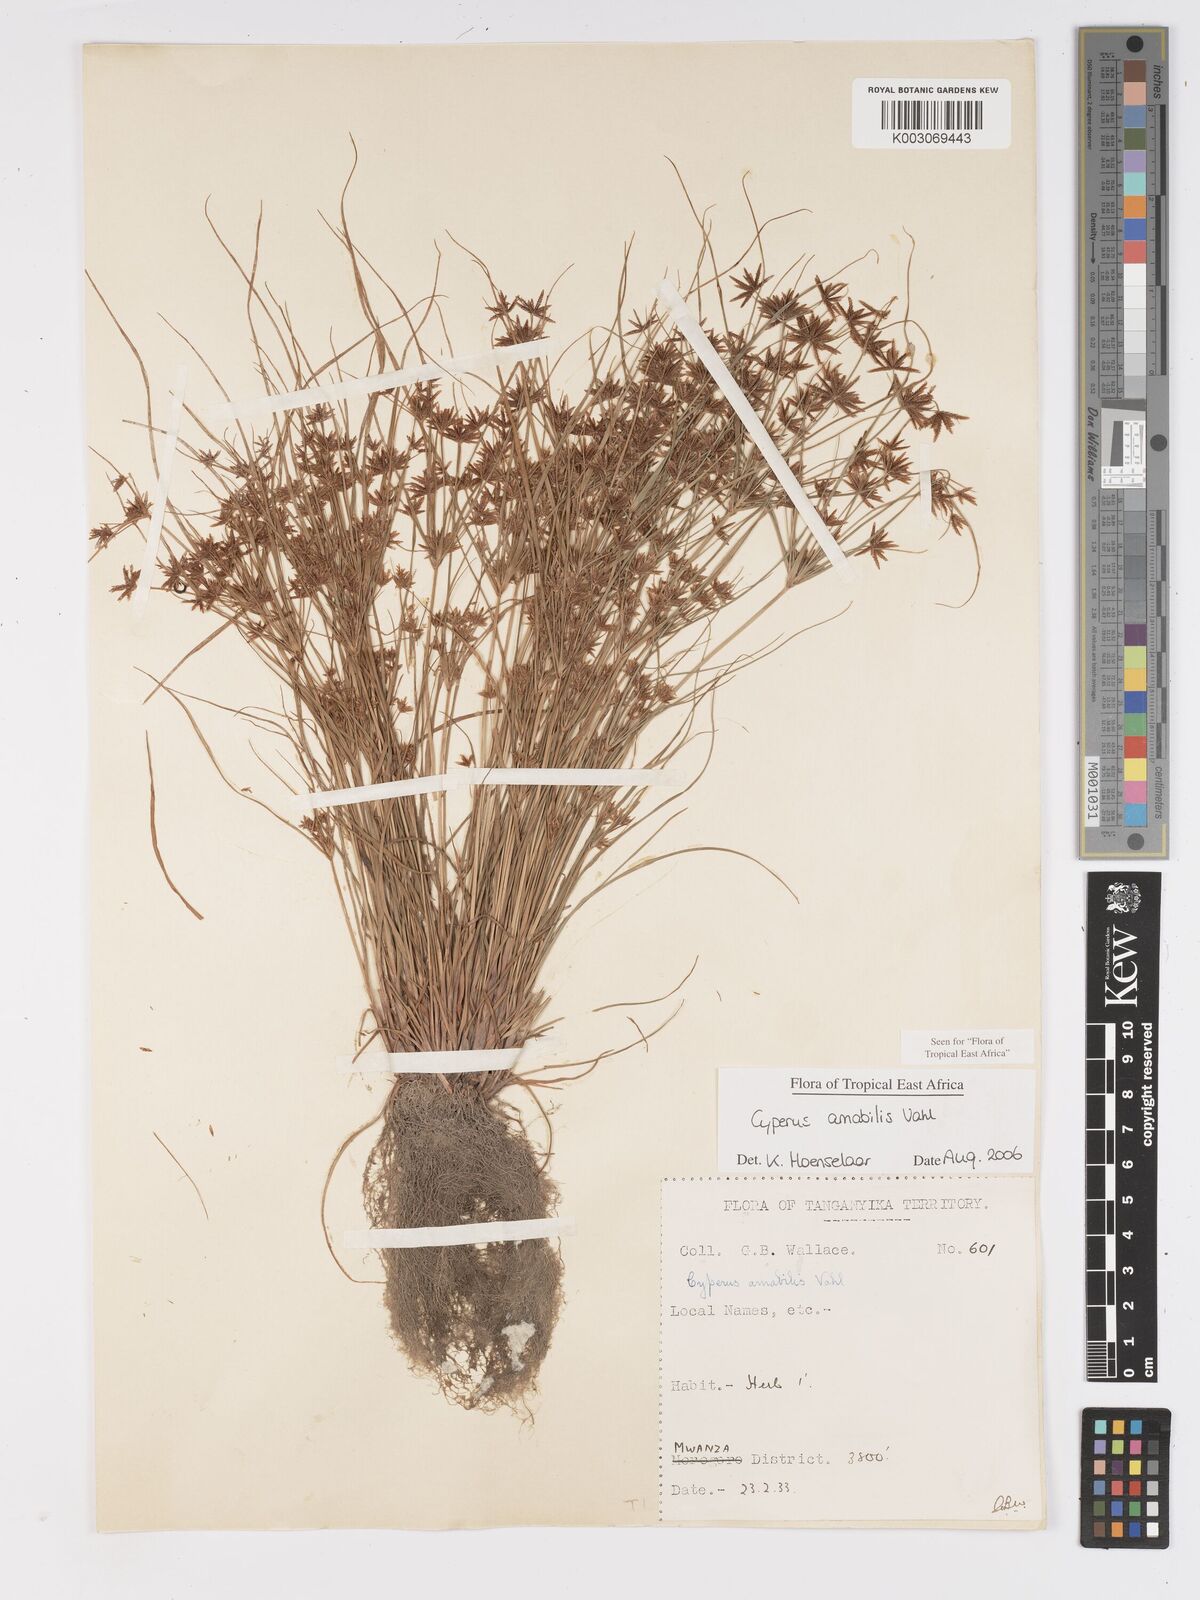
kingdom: Plantae
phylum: Tracheophyta
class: Liliopsida
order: Poales
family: Cyperaceae
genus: Cyperus
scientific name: Cyperus amabilis
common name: Foothill flat sedge
